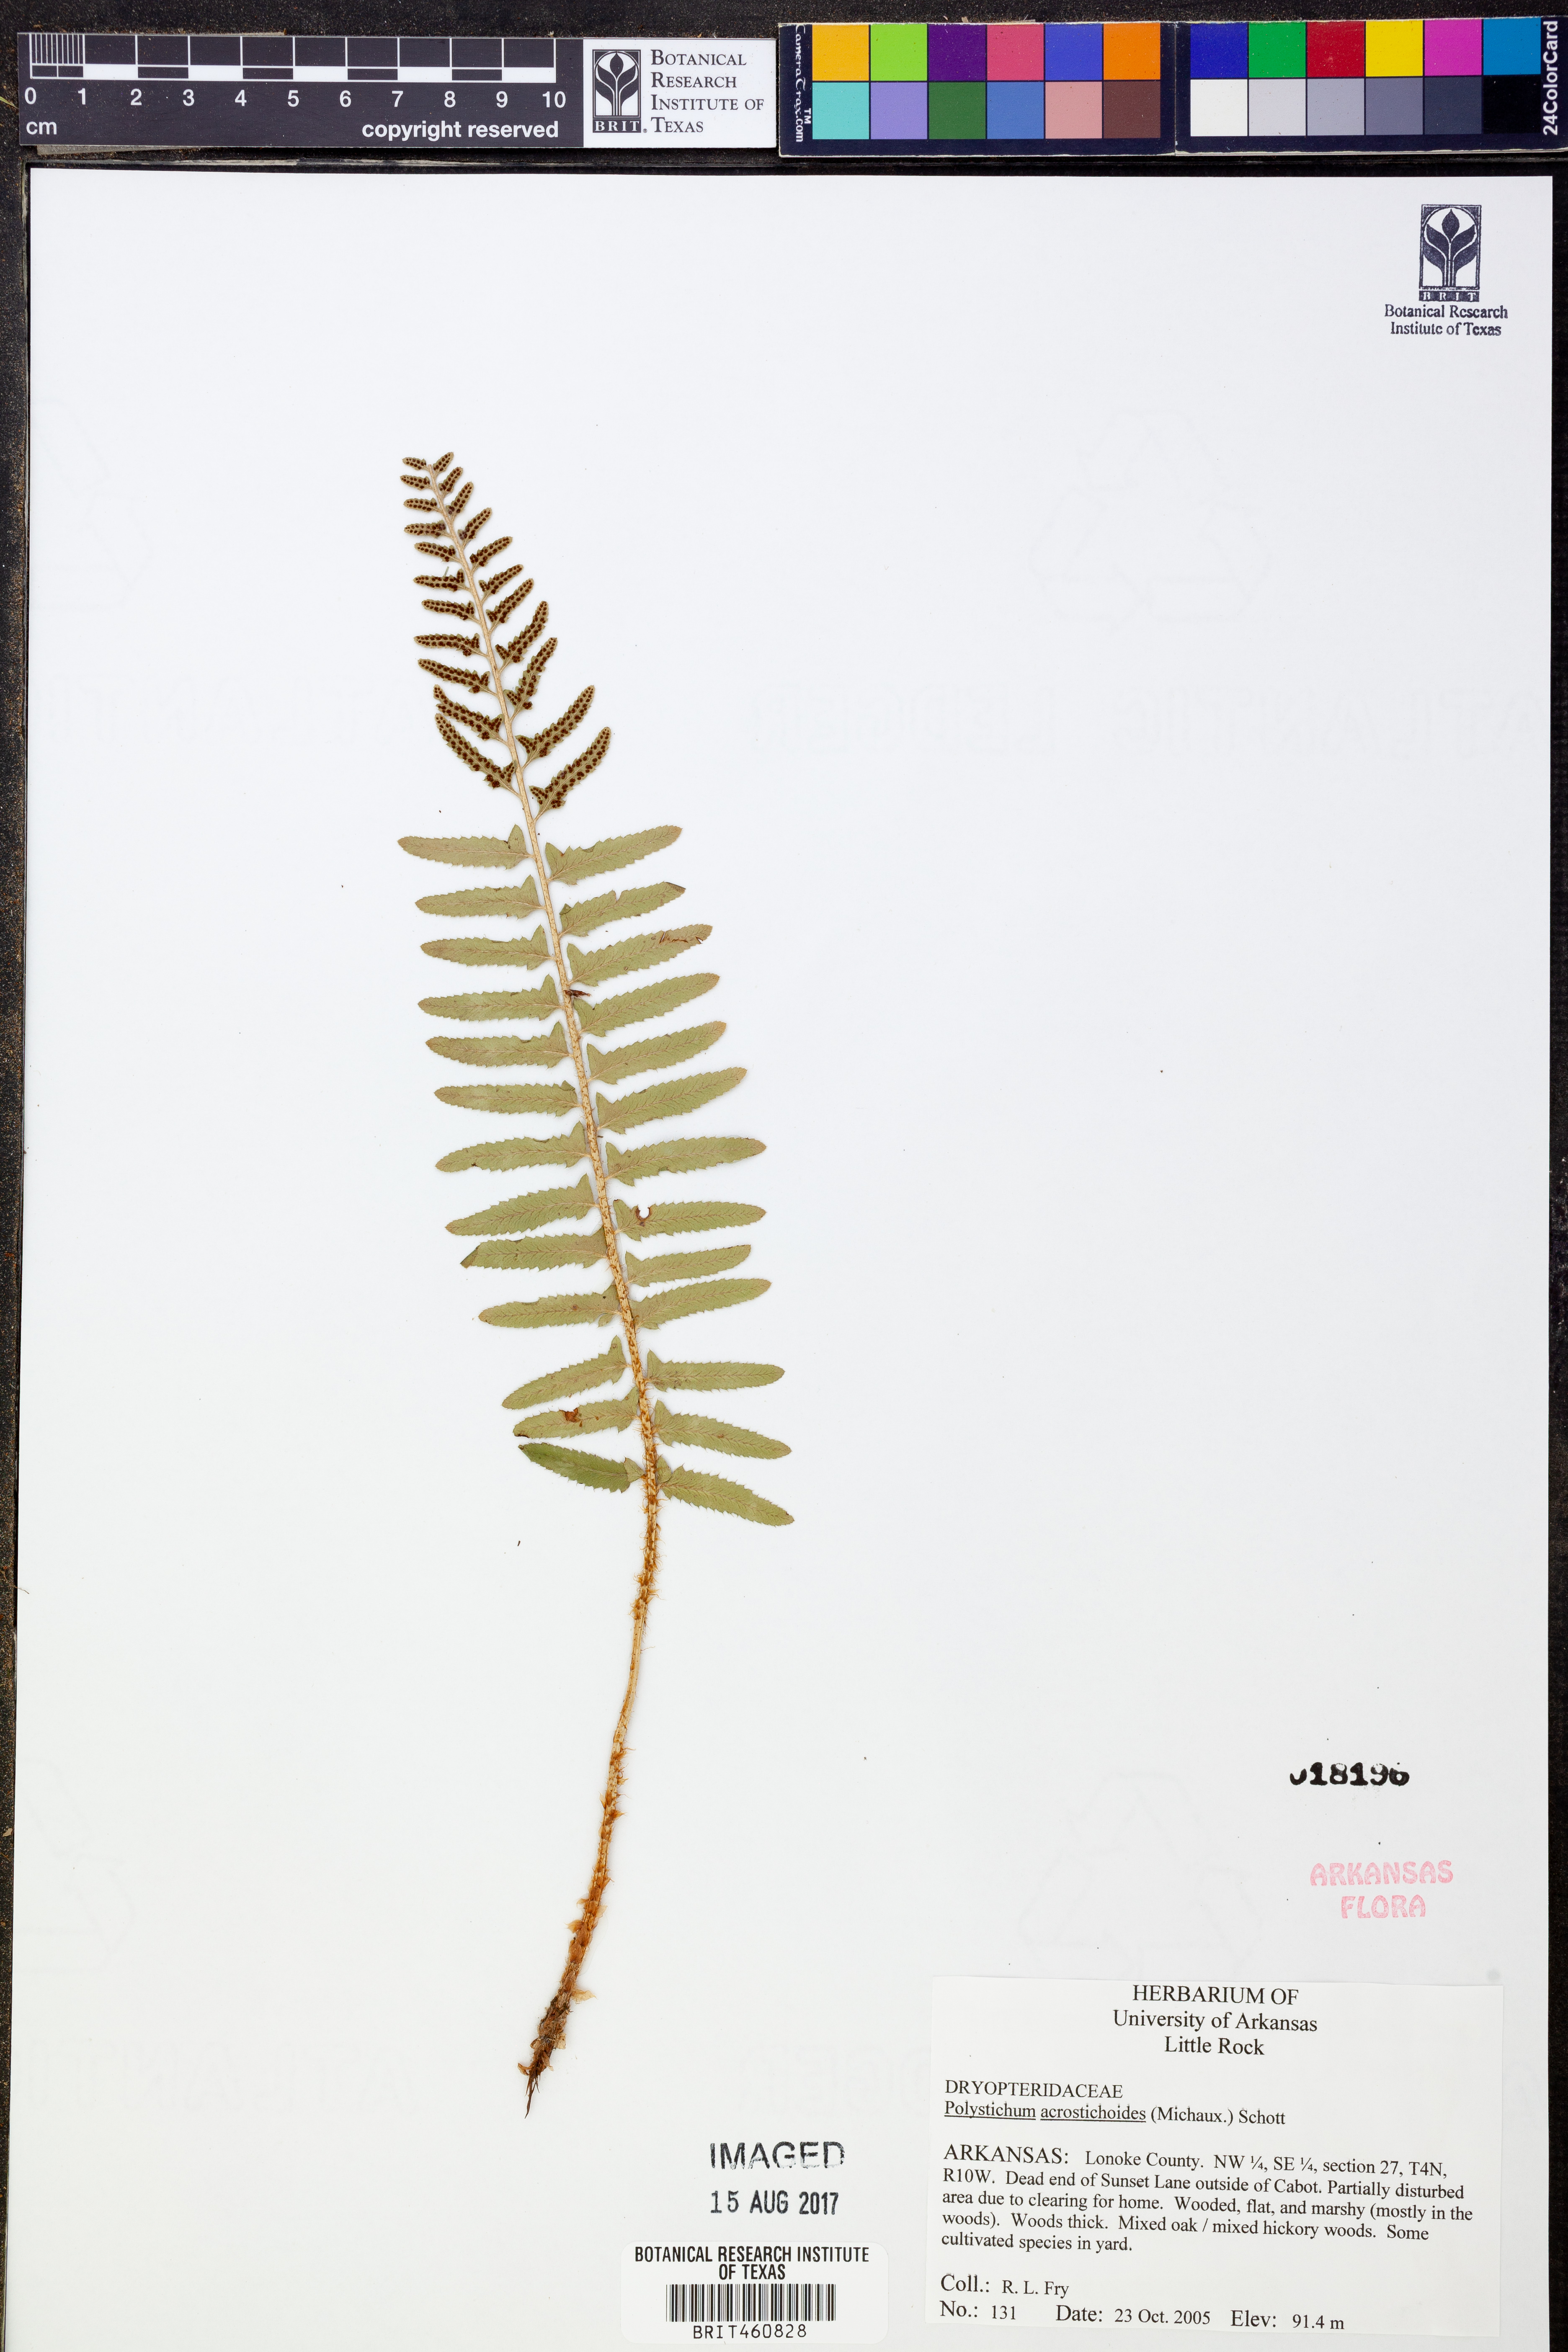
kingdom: Plantae
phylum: Tracheophyta
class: Polypodiopsida
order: Polypodiales
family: Dryopteridaceae
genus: Polystichum
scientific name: Polystichum acrostichoides
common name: Christmas fern
